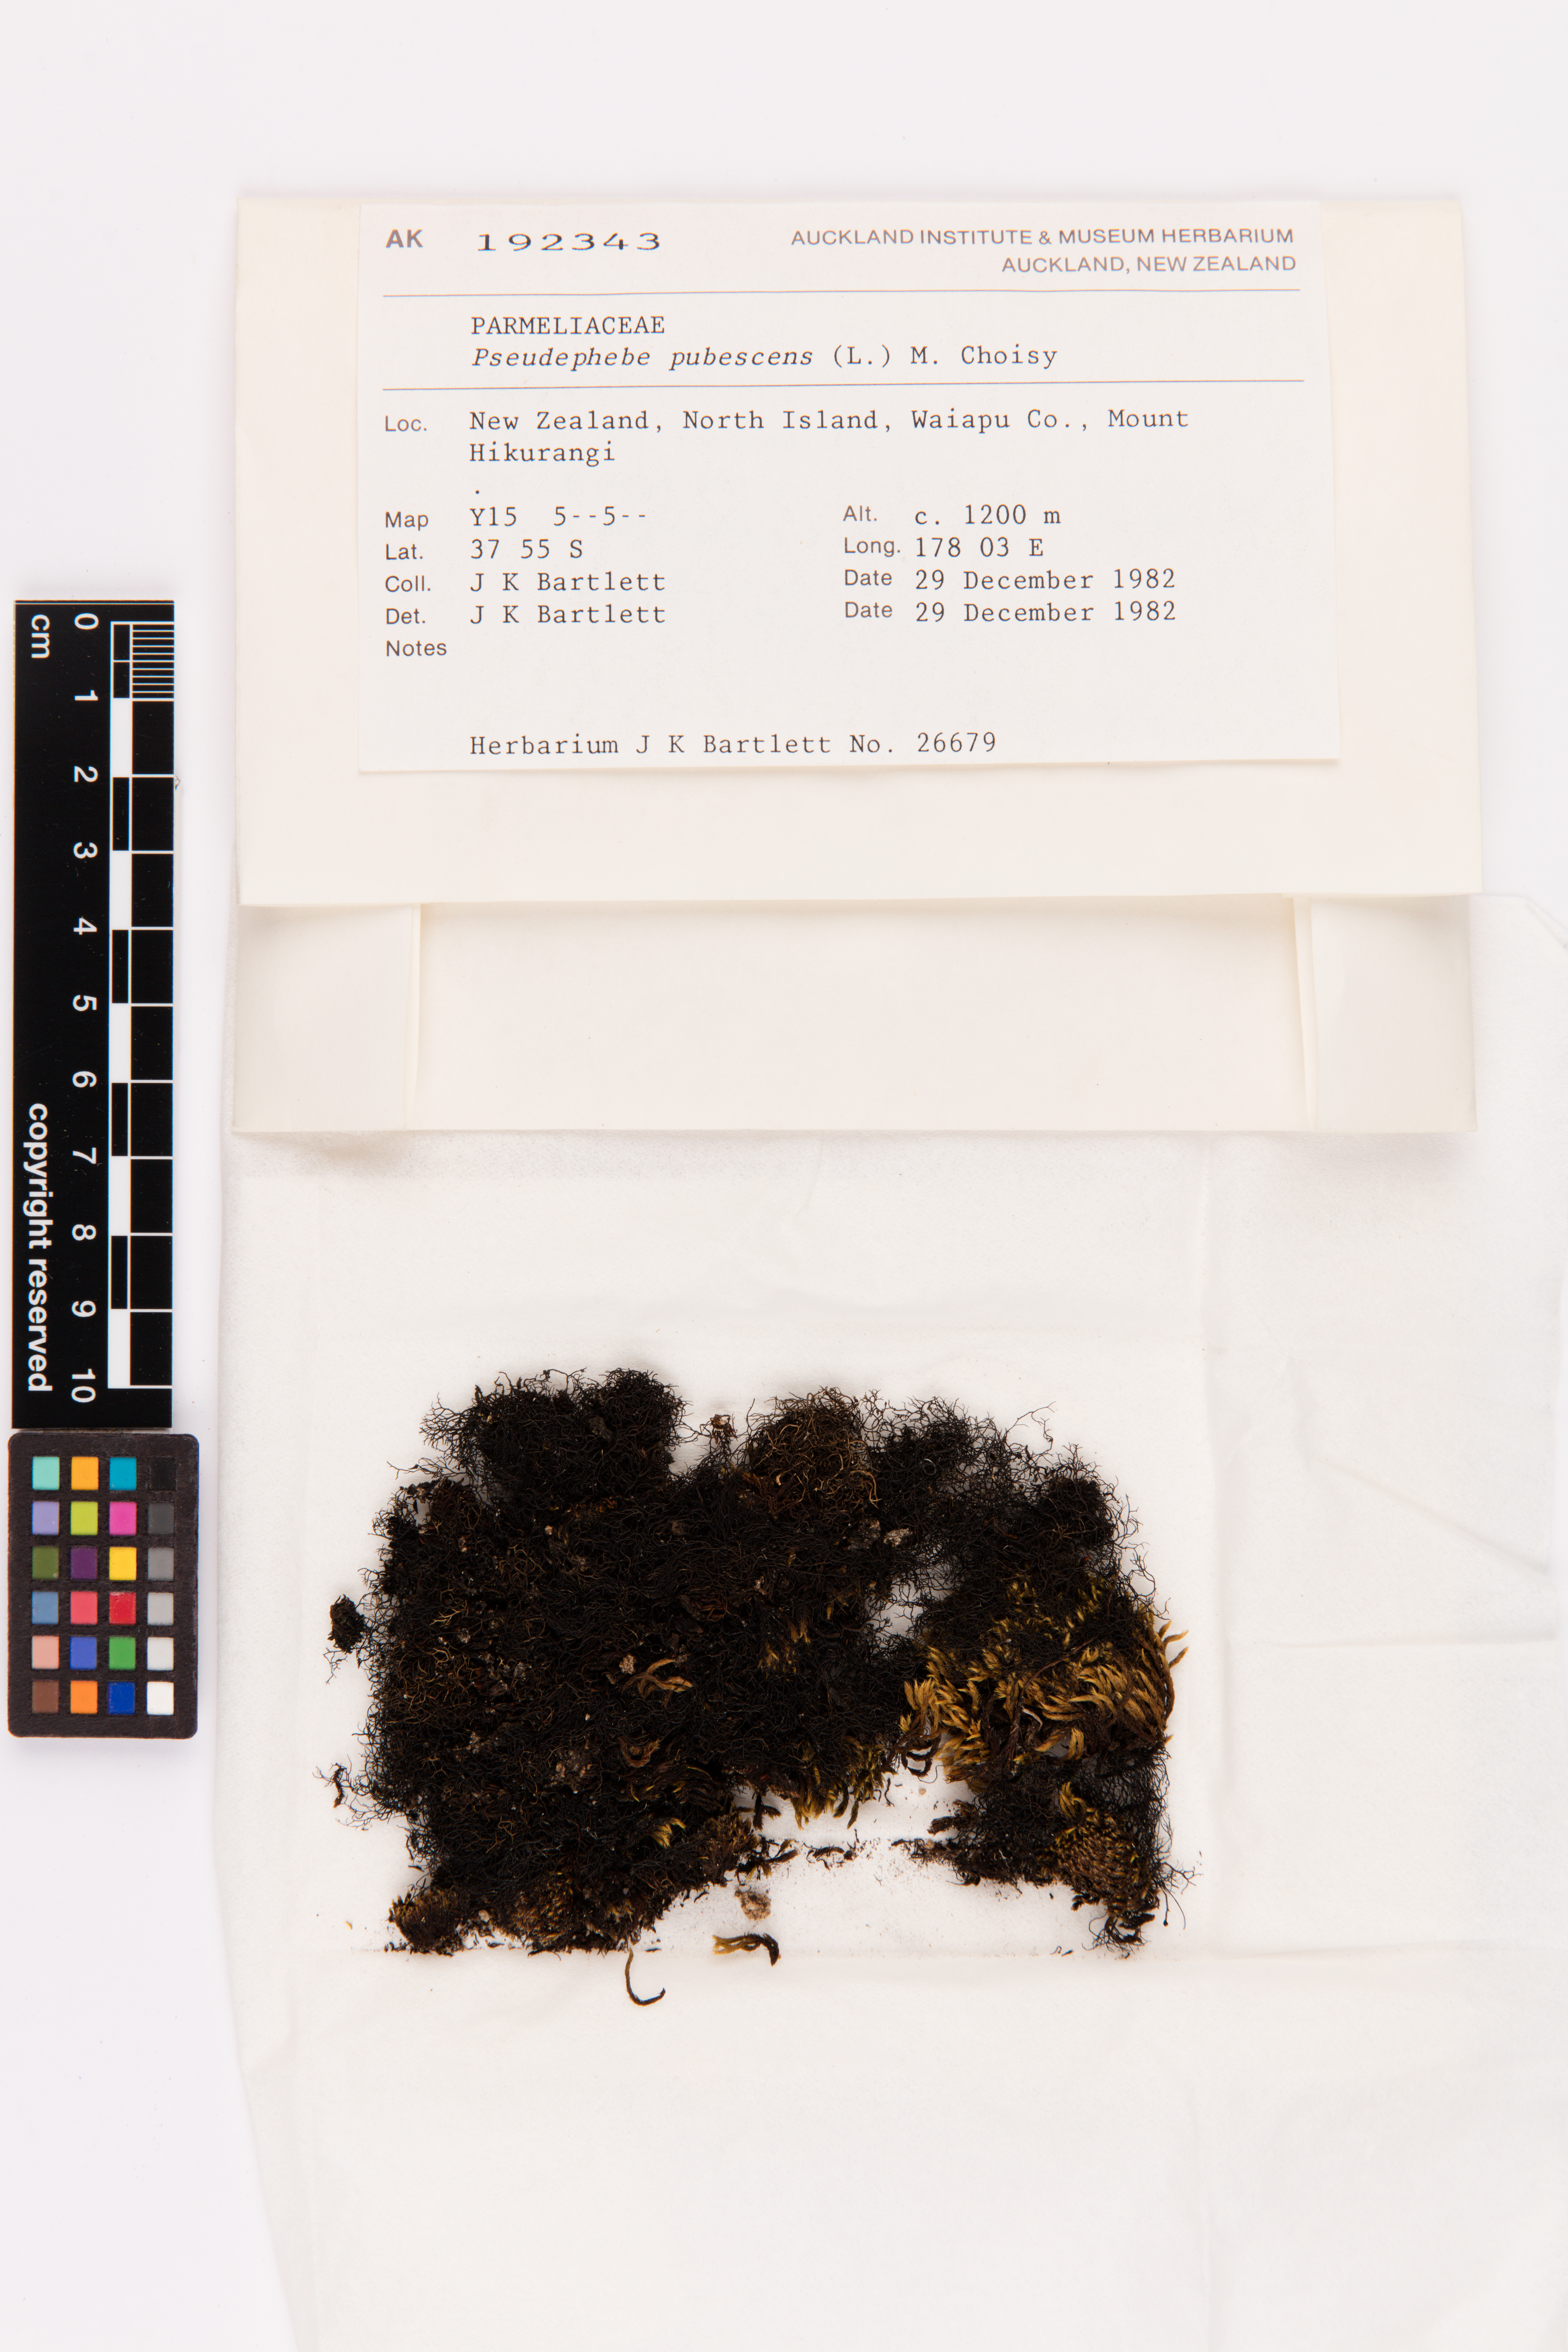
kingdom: Fungi
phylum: Ascomycota
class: Lecanoromycetes
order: Lecanorales
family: Parmeliaceae
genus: Pseudephebe
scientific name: Pseudephebe pubescens
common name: Fine rockwool lichen
